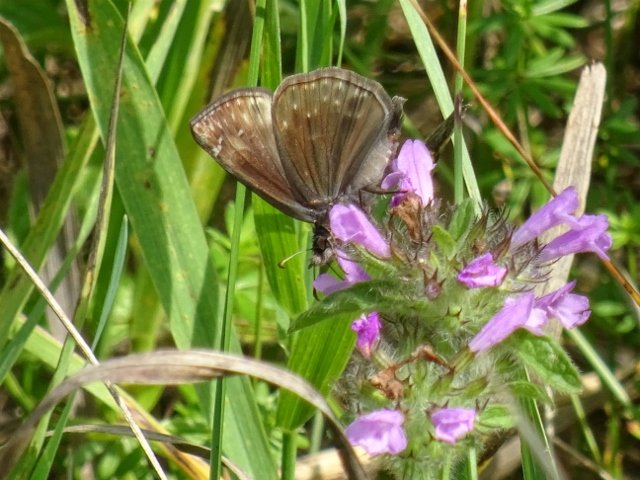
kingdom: Animalia
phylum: Arthropoda
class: Insecta
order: Lepidoptera
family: Hesperiidae
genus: Erynnis
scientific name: Erynnis
